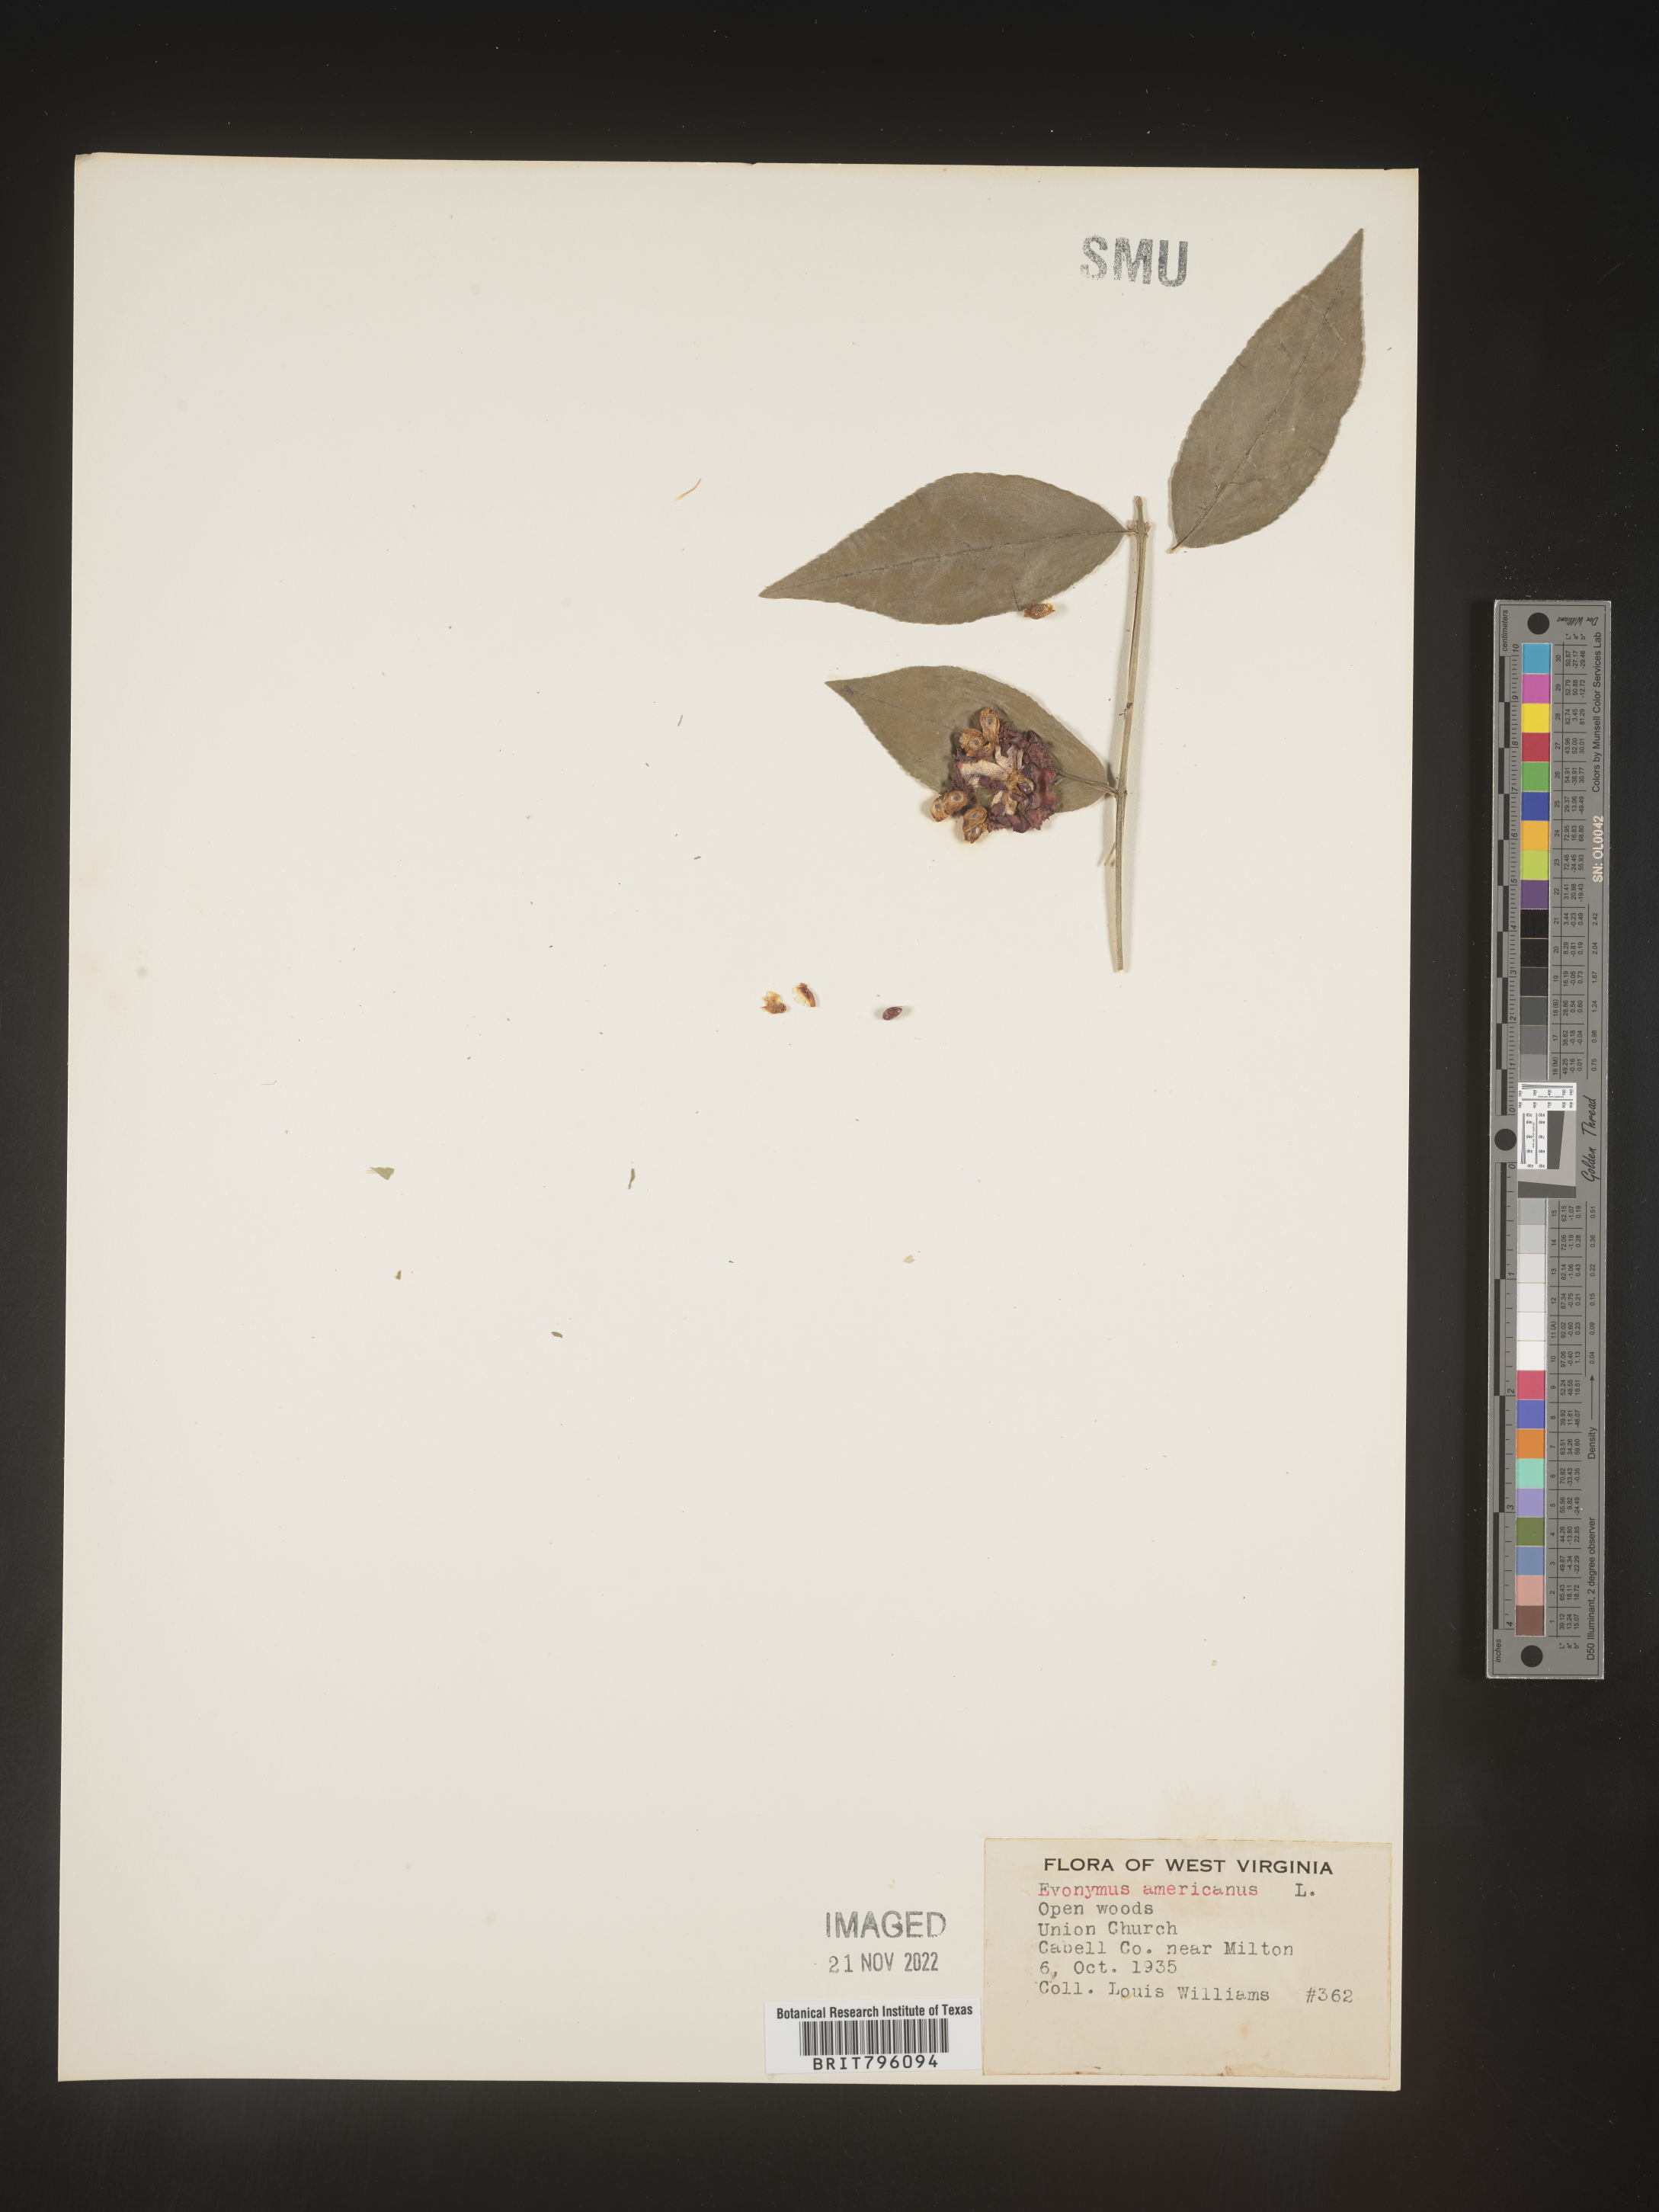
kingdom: Plantae
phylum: Tracheophyta
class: Magnoliopsida
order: Celastrales
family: Celastraceae
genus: Euonymus
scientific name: Euonymus americanus
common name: Bursting-heart
